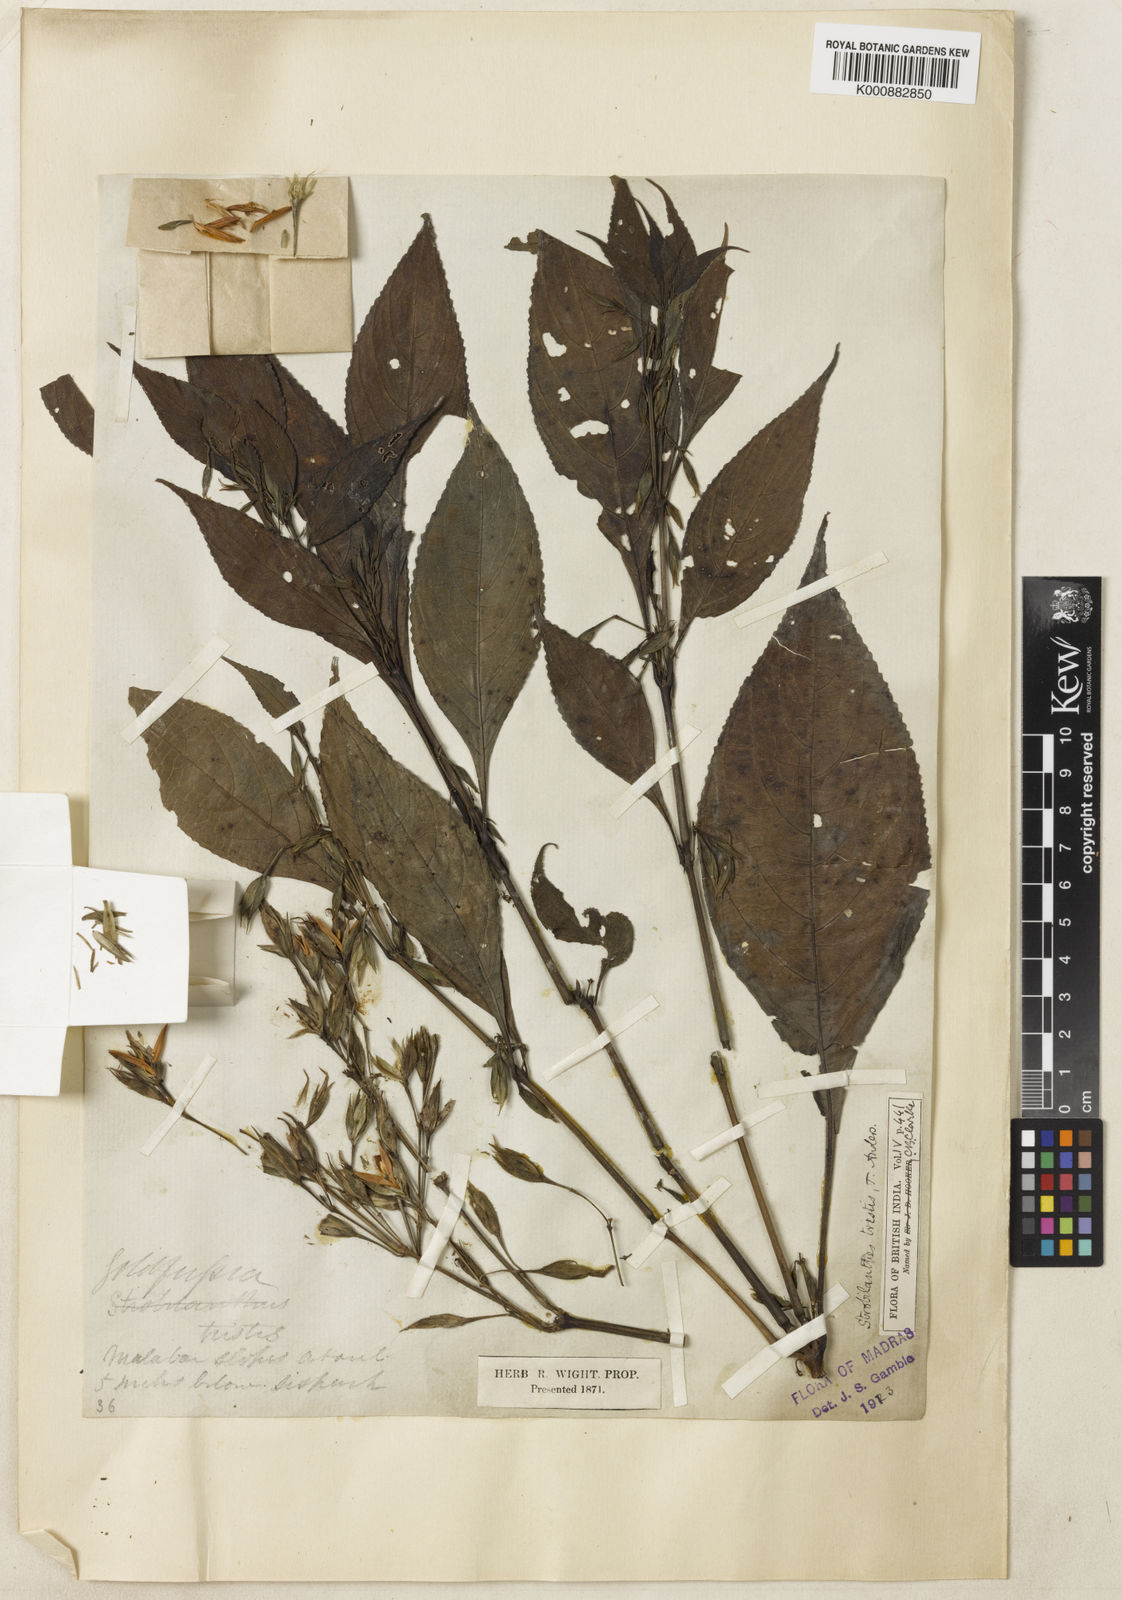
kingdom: Plantae
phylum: Tracheophyta
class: Magnoliopsida
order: Lamiales
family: Acanthaceae
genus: Strobilanthes
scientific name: Strobilanthes tristis
